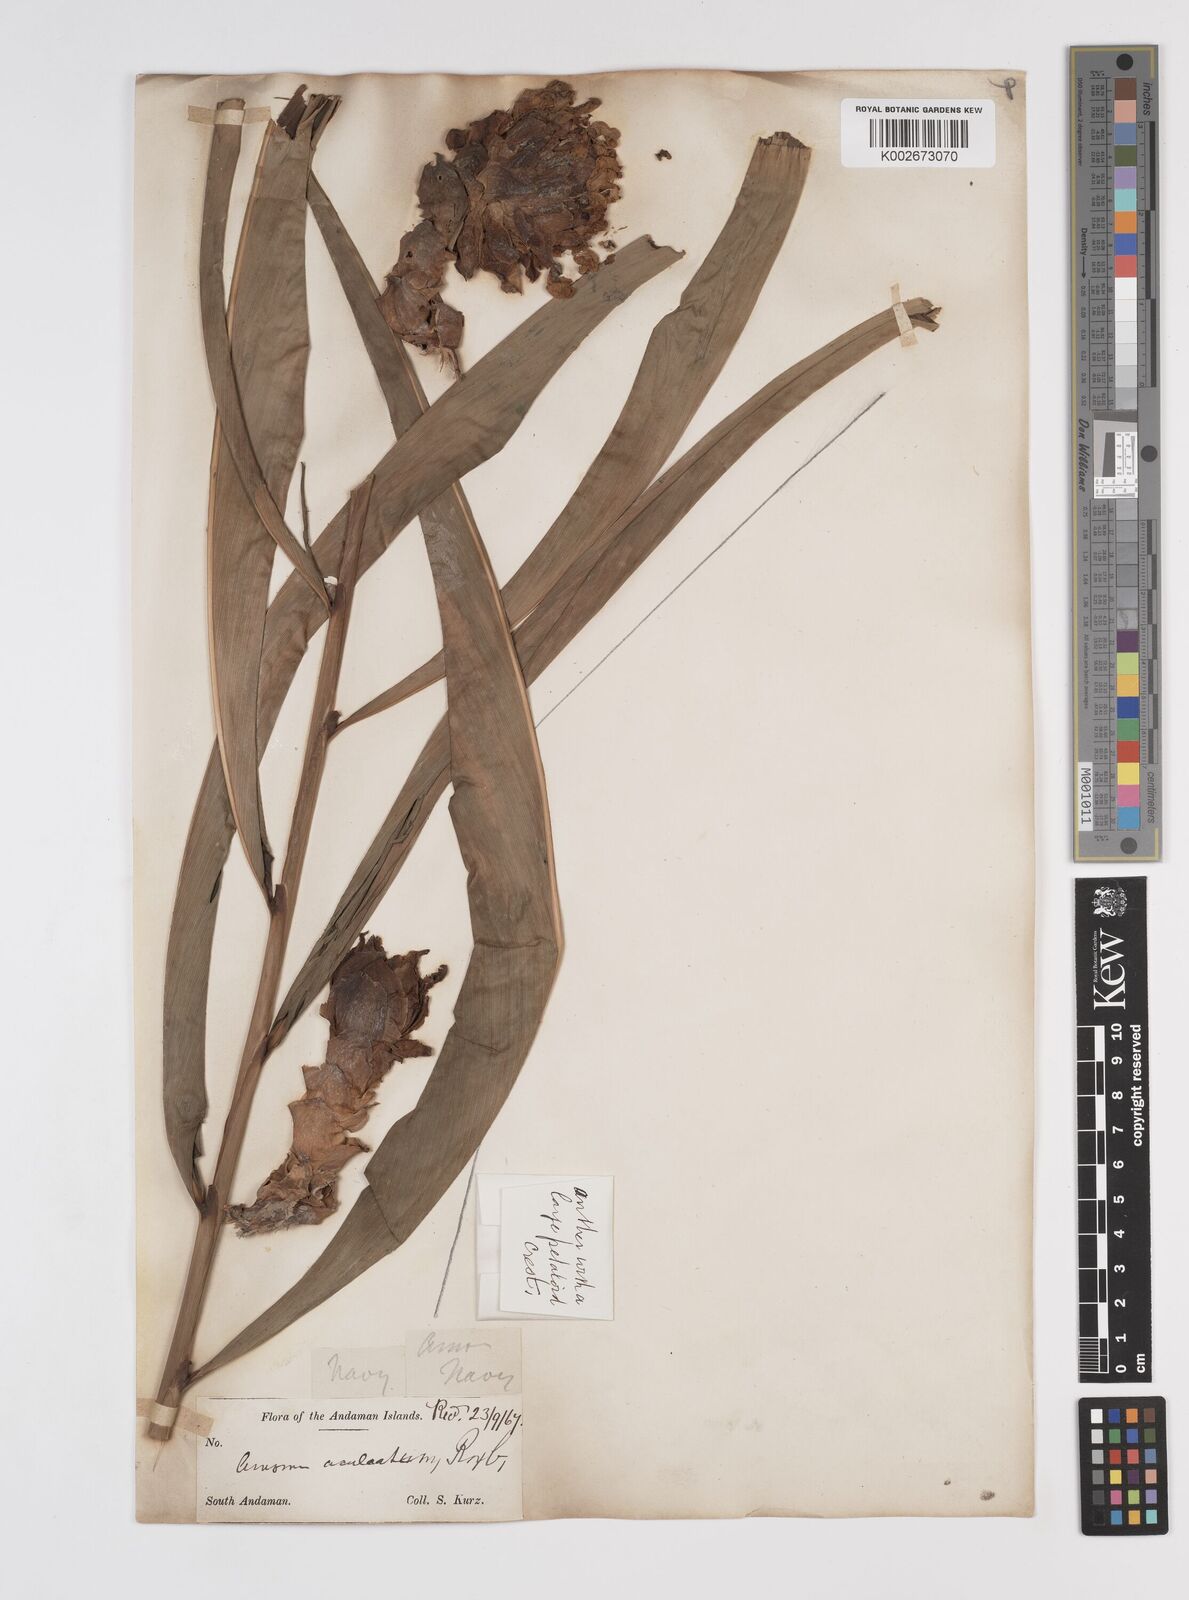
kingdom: Plantae
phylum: Tracheophyta
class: Liliopsida
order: Zingiberales
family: Zingiberaceae
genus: Meistera
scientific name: Meistera aculeata
